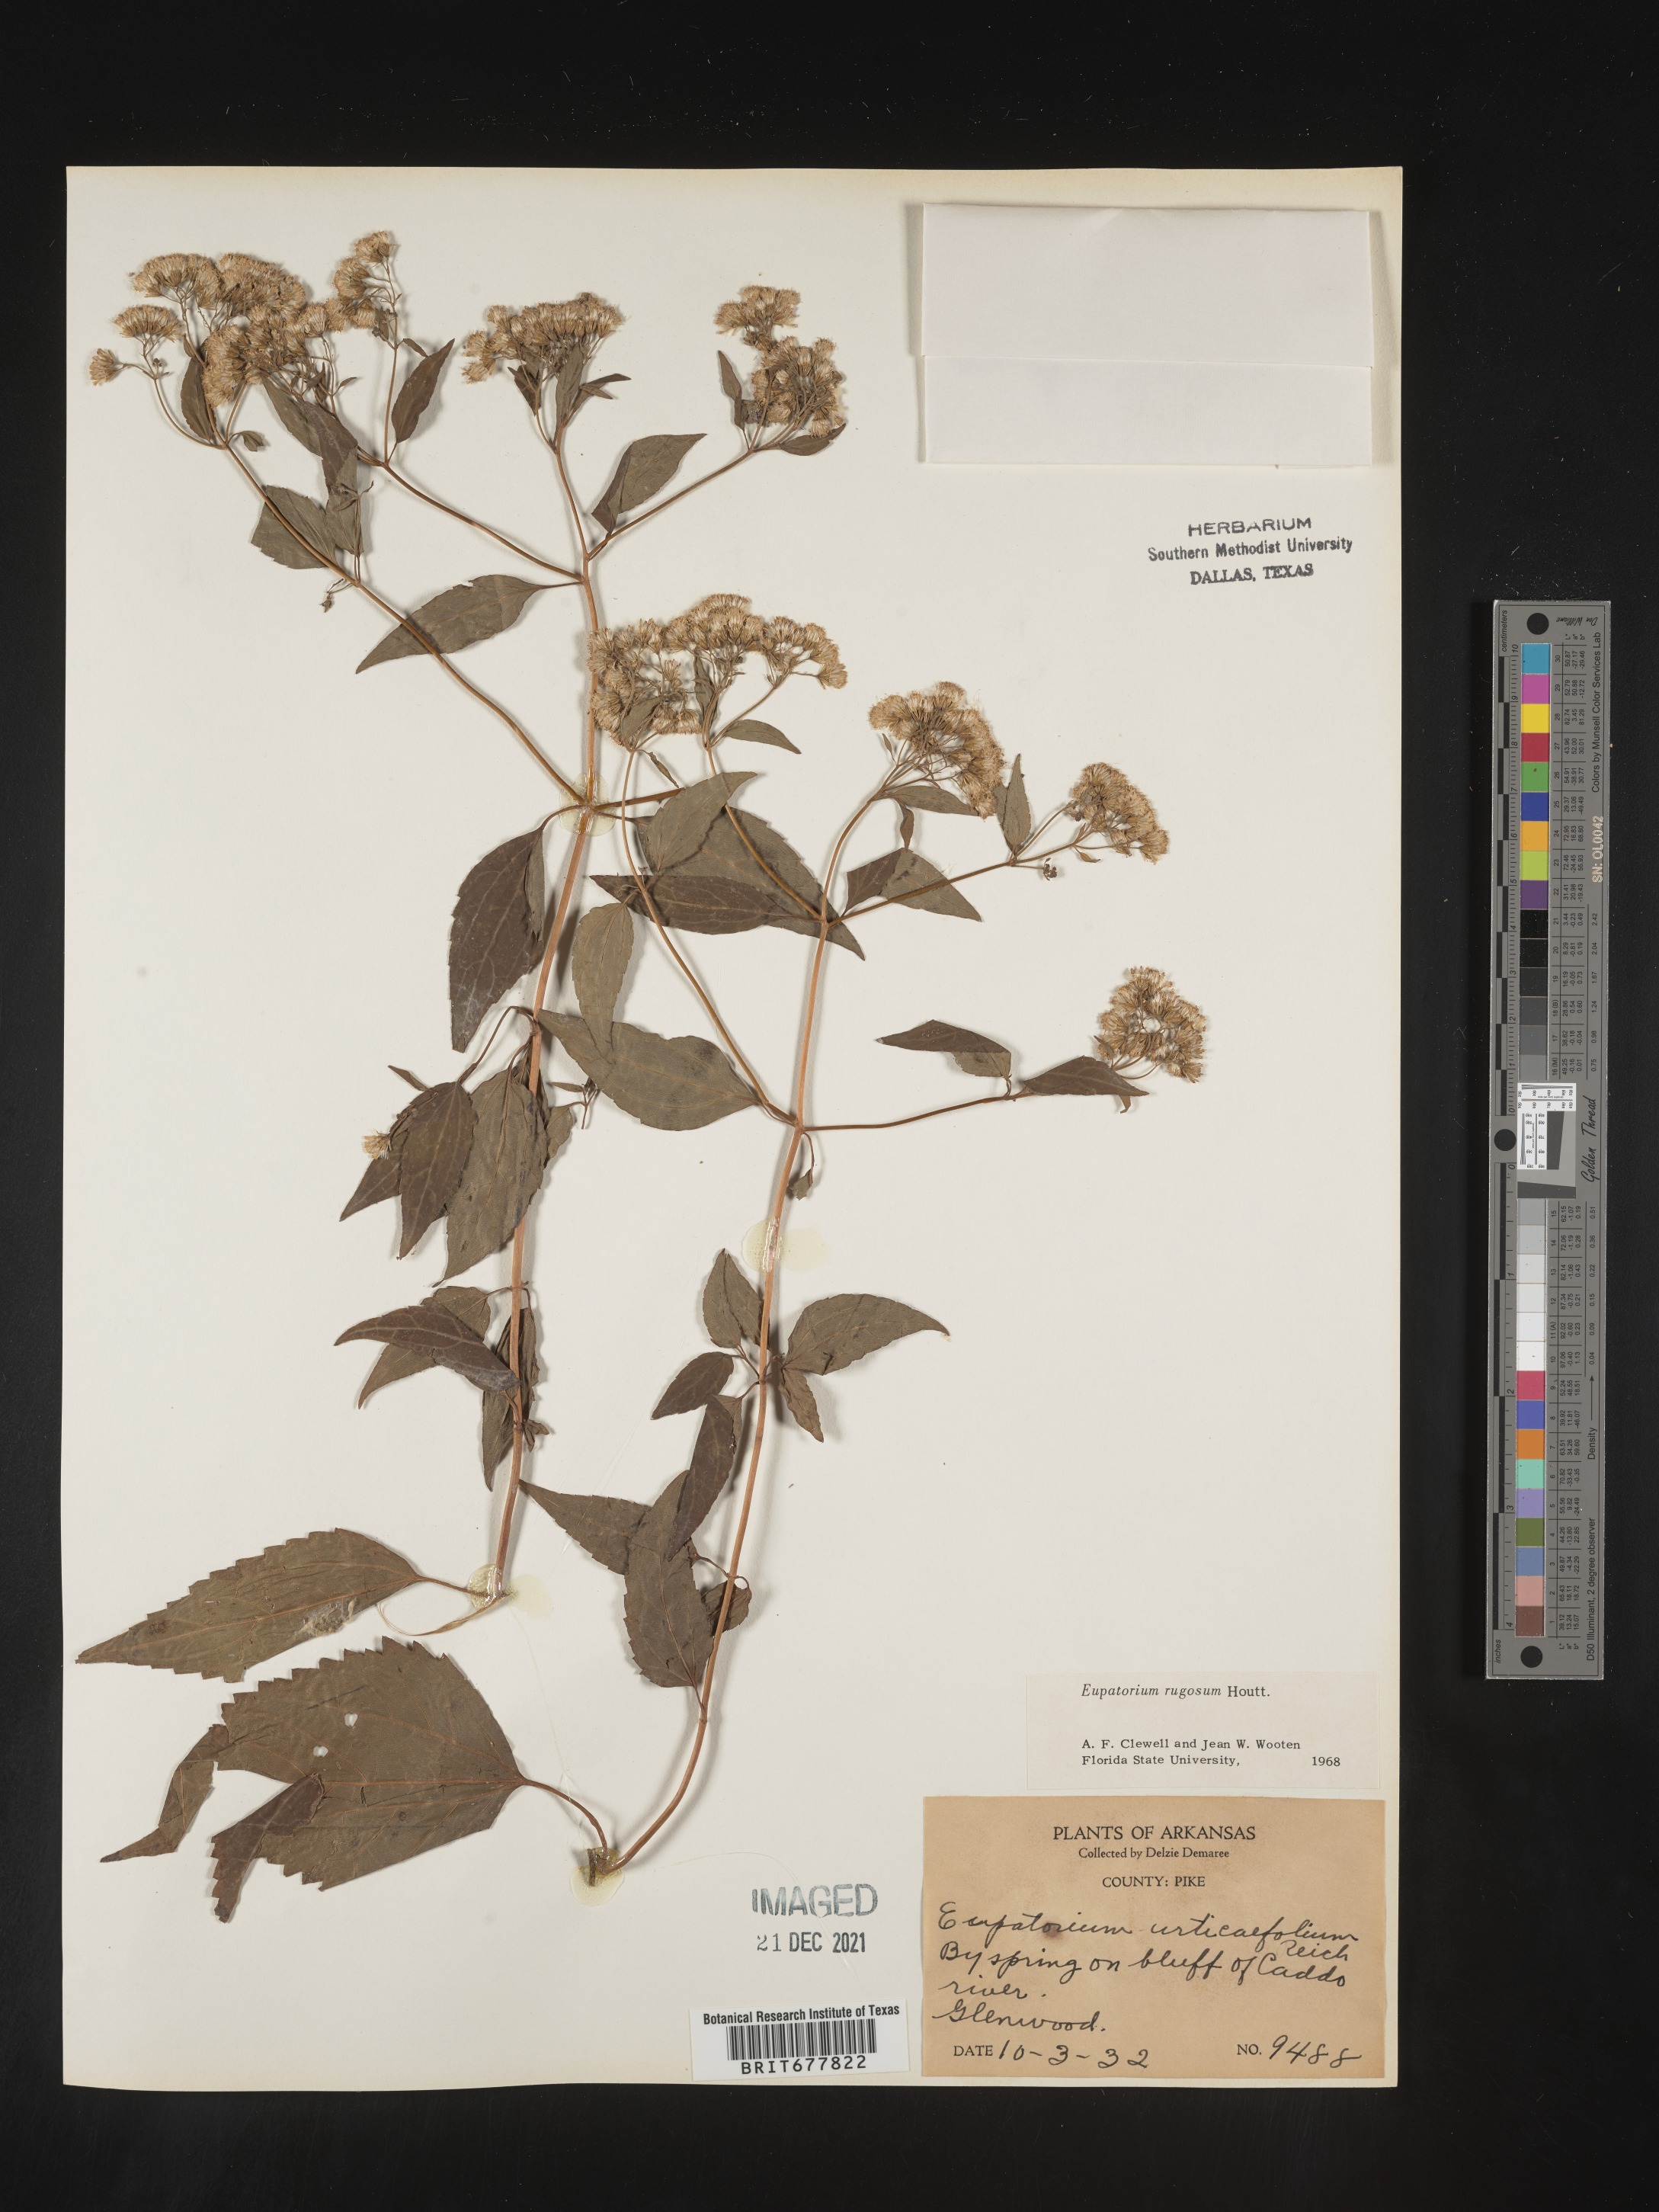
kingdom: Plantae
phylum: Tracheophyta
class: Magnoliopsida
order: Asterales
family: Asteraceae
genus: Ageratina
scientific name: Ageratina altissima
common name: White snakeroot
